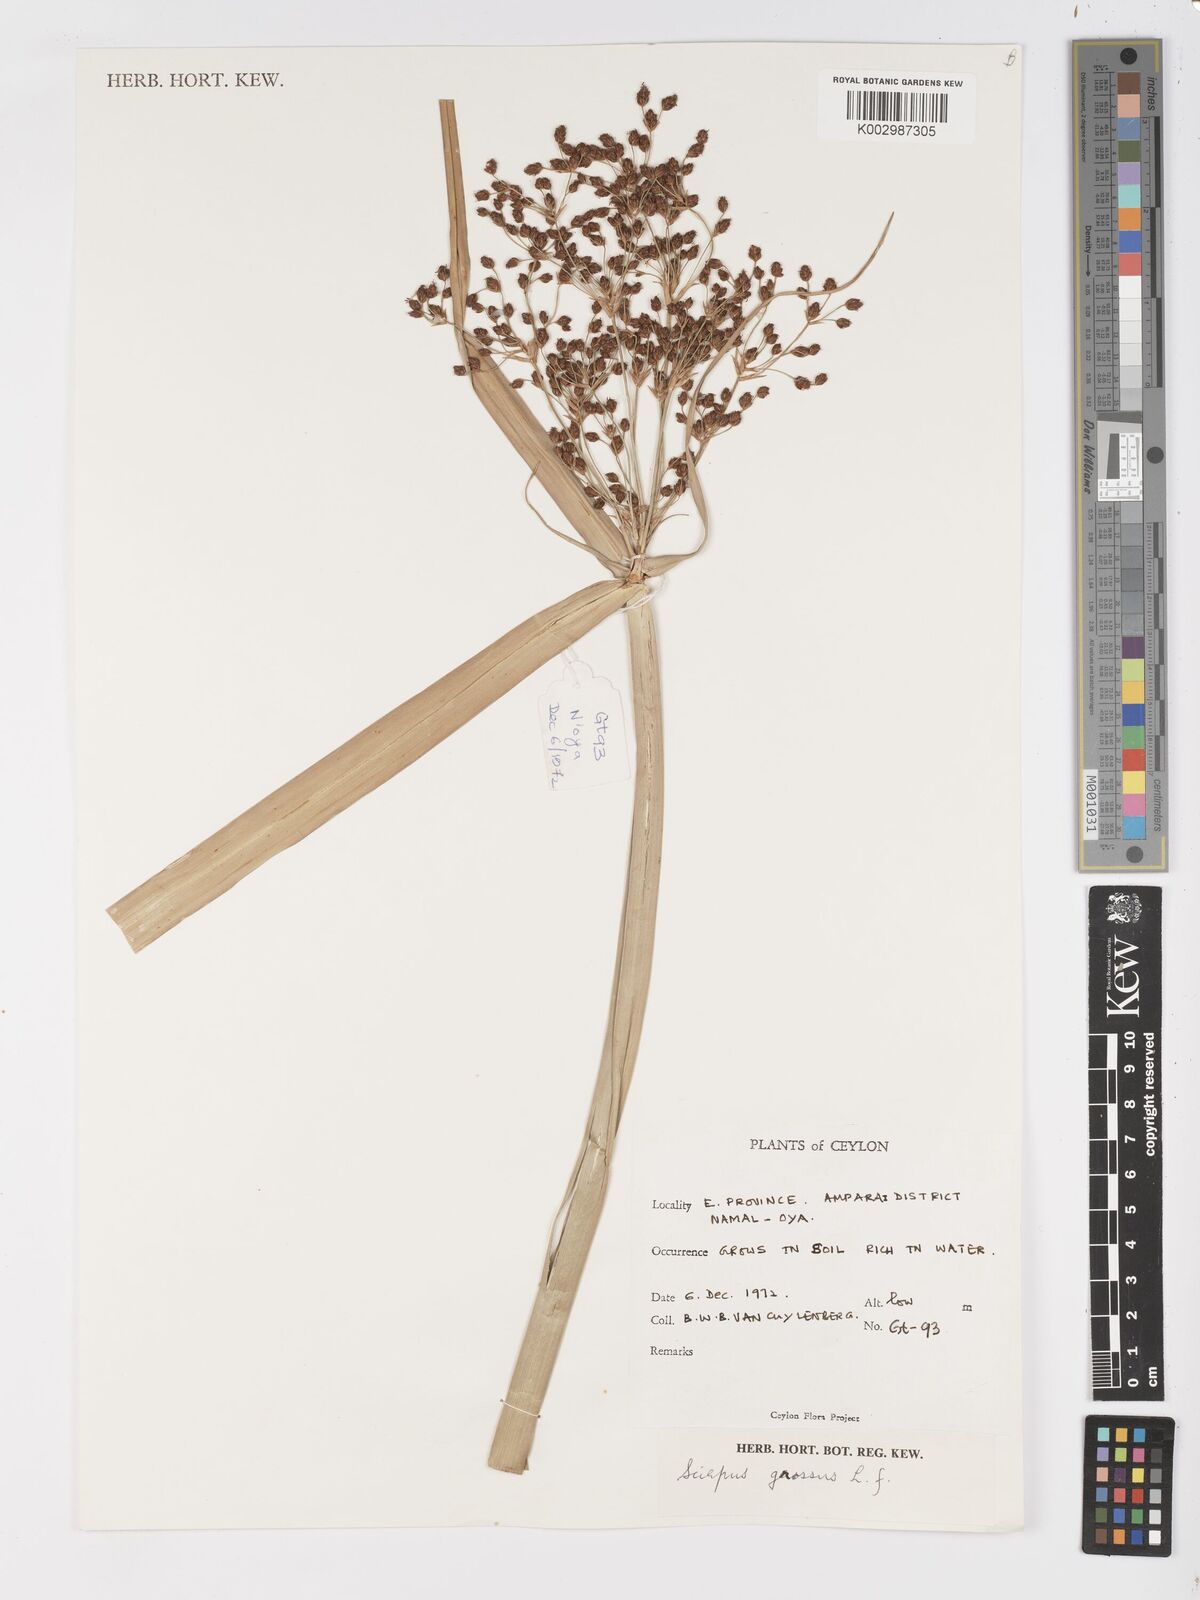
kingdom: Plantae
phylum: Tracheophyta
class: Liliopsida
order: Poales
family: Cyperaceae
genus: Actinoscirpus
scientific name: Actinoscirpus grossus
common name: Giant bur rush
